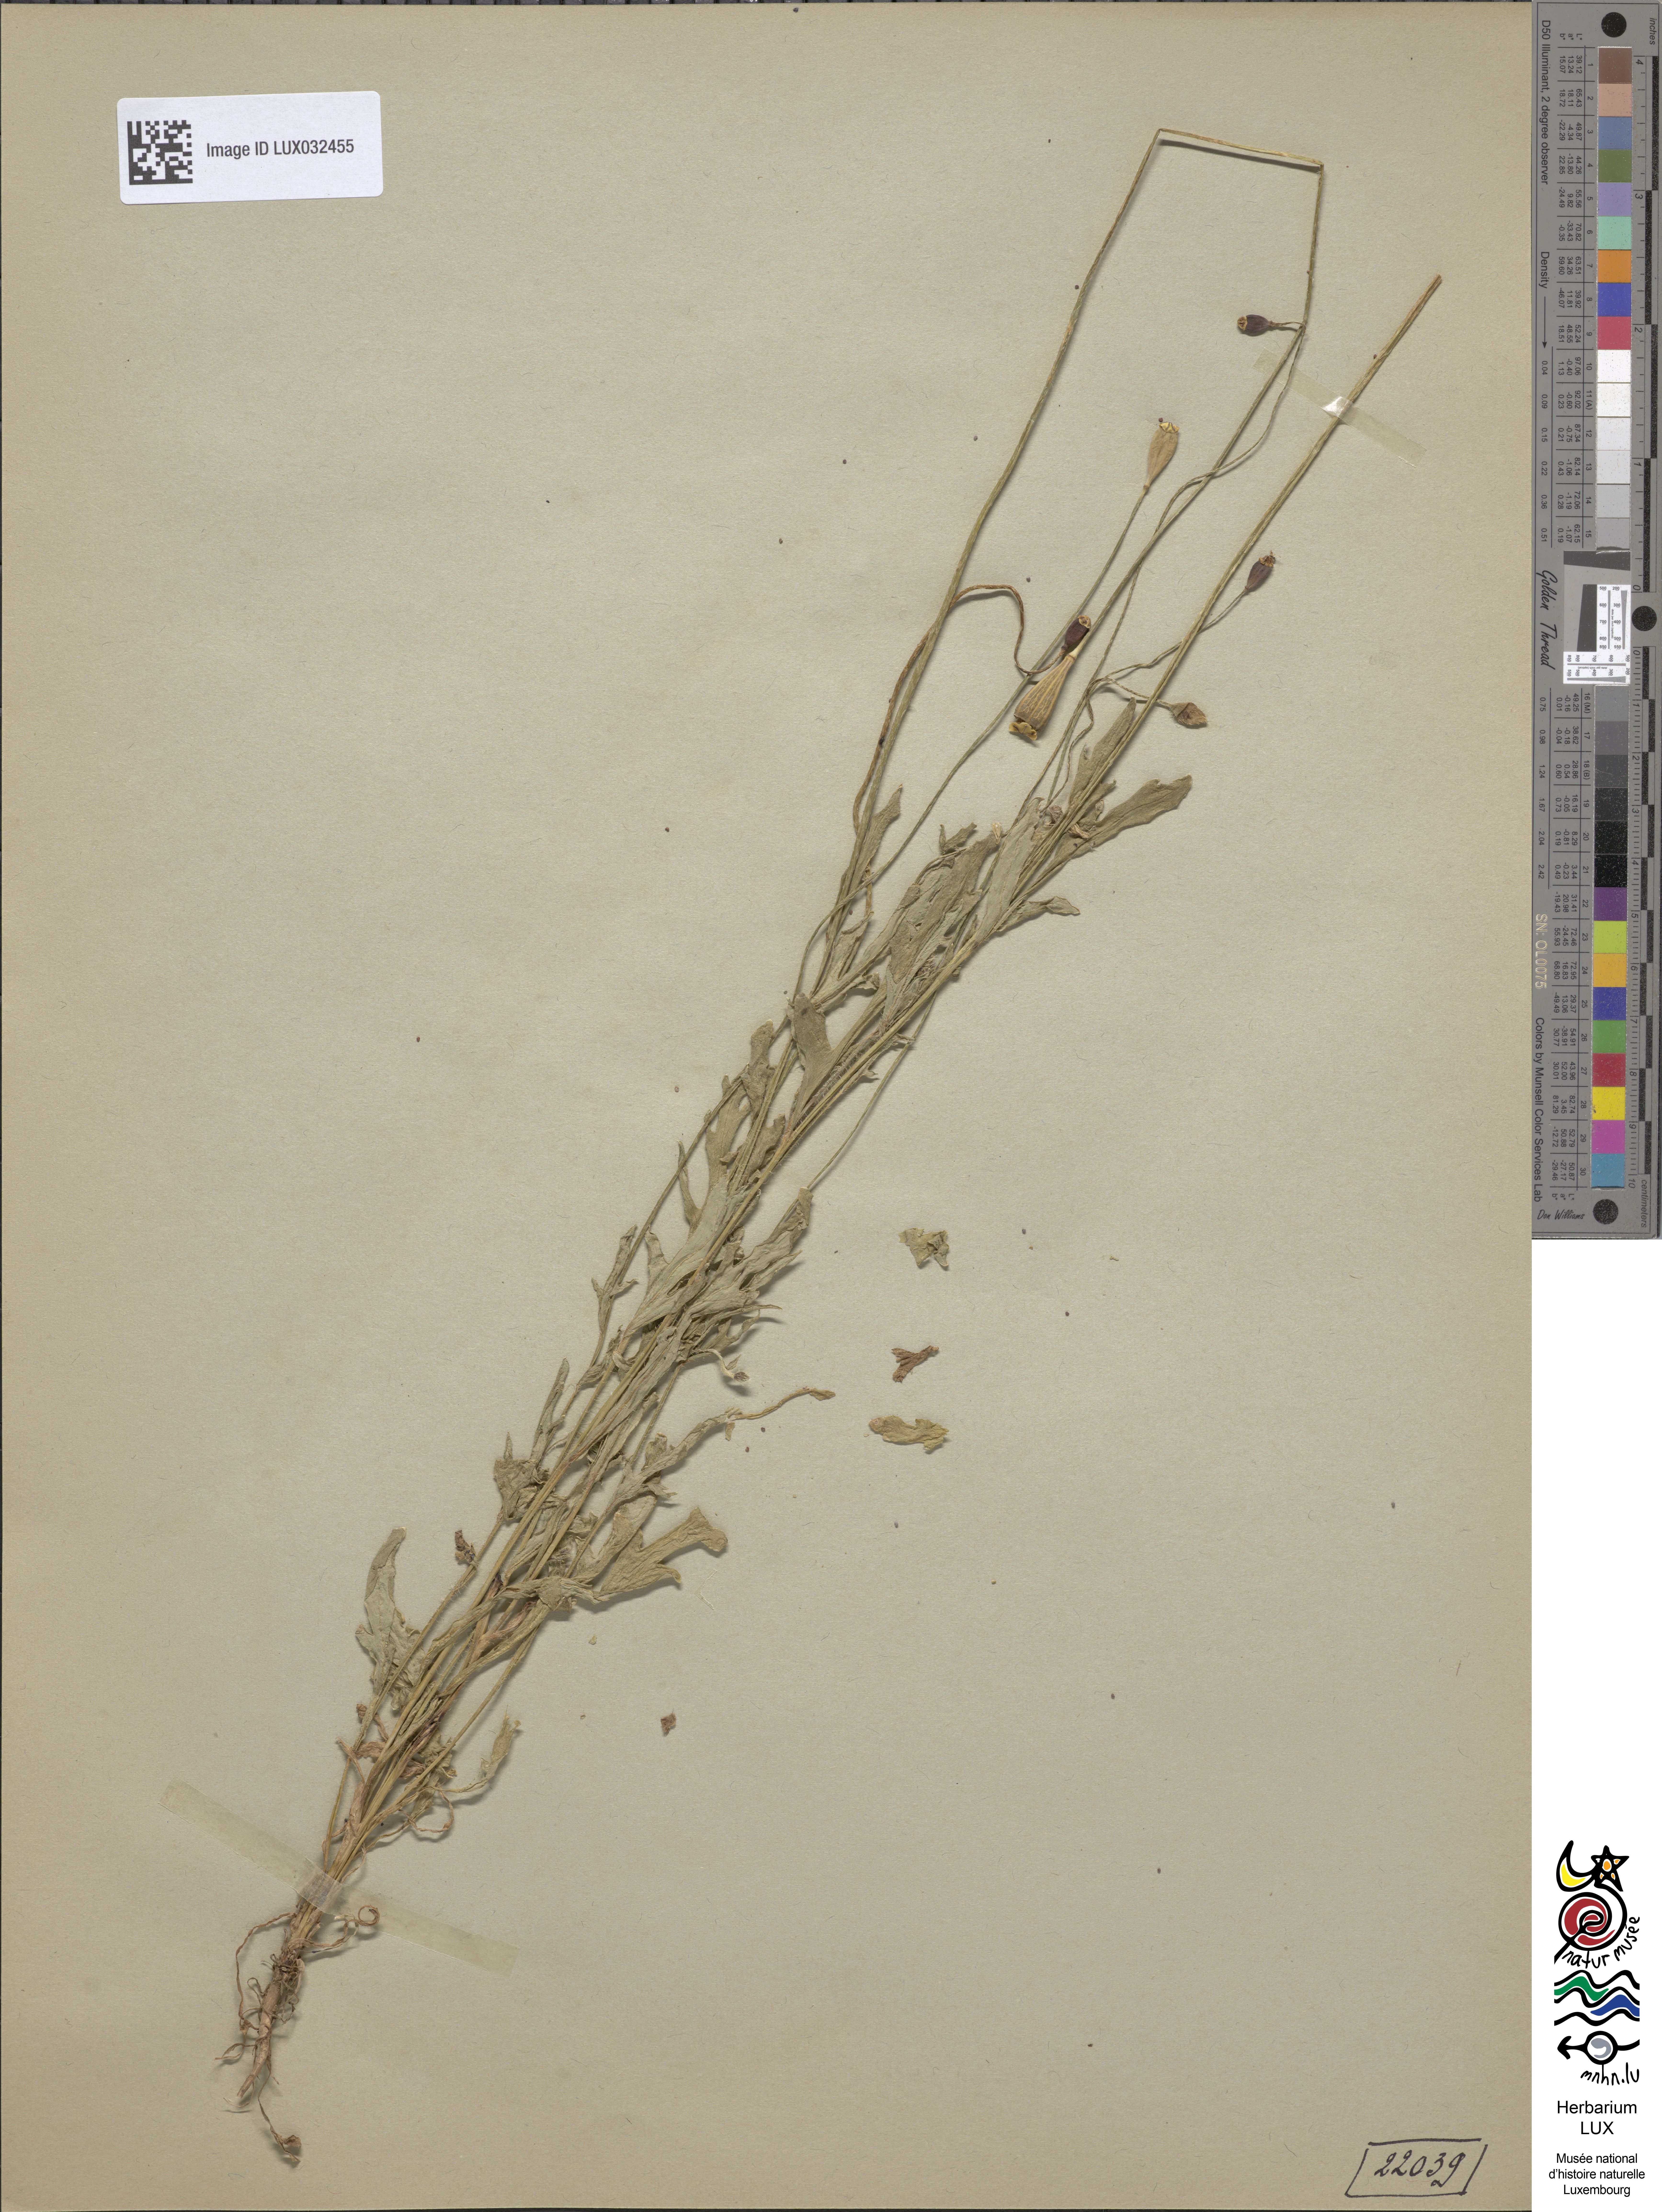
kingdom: Plantae
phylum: Tracheophyta
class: Magnoliopsida
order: Ranunculales
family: Papaveraceae
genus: Papaver
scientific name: Papaver dubium
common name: Long-headed poppy
